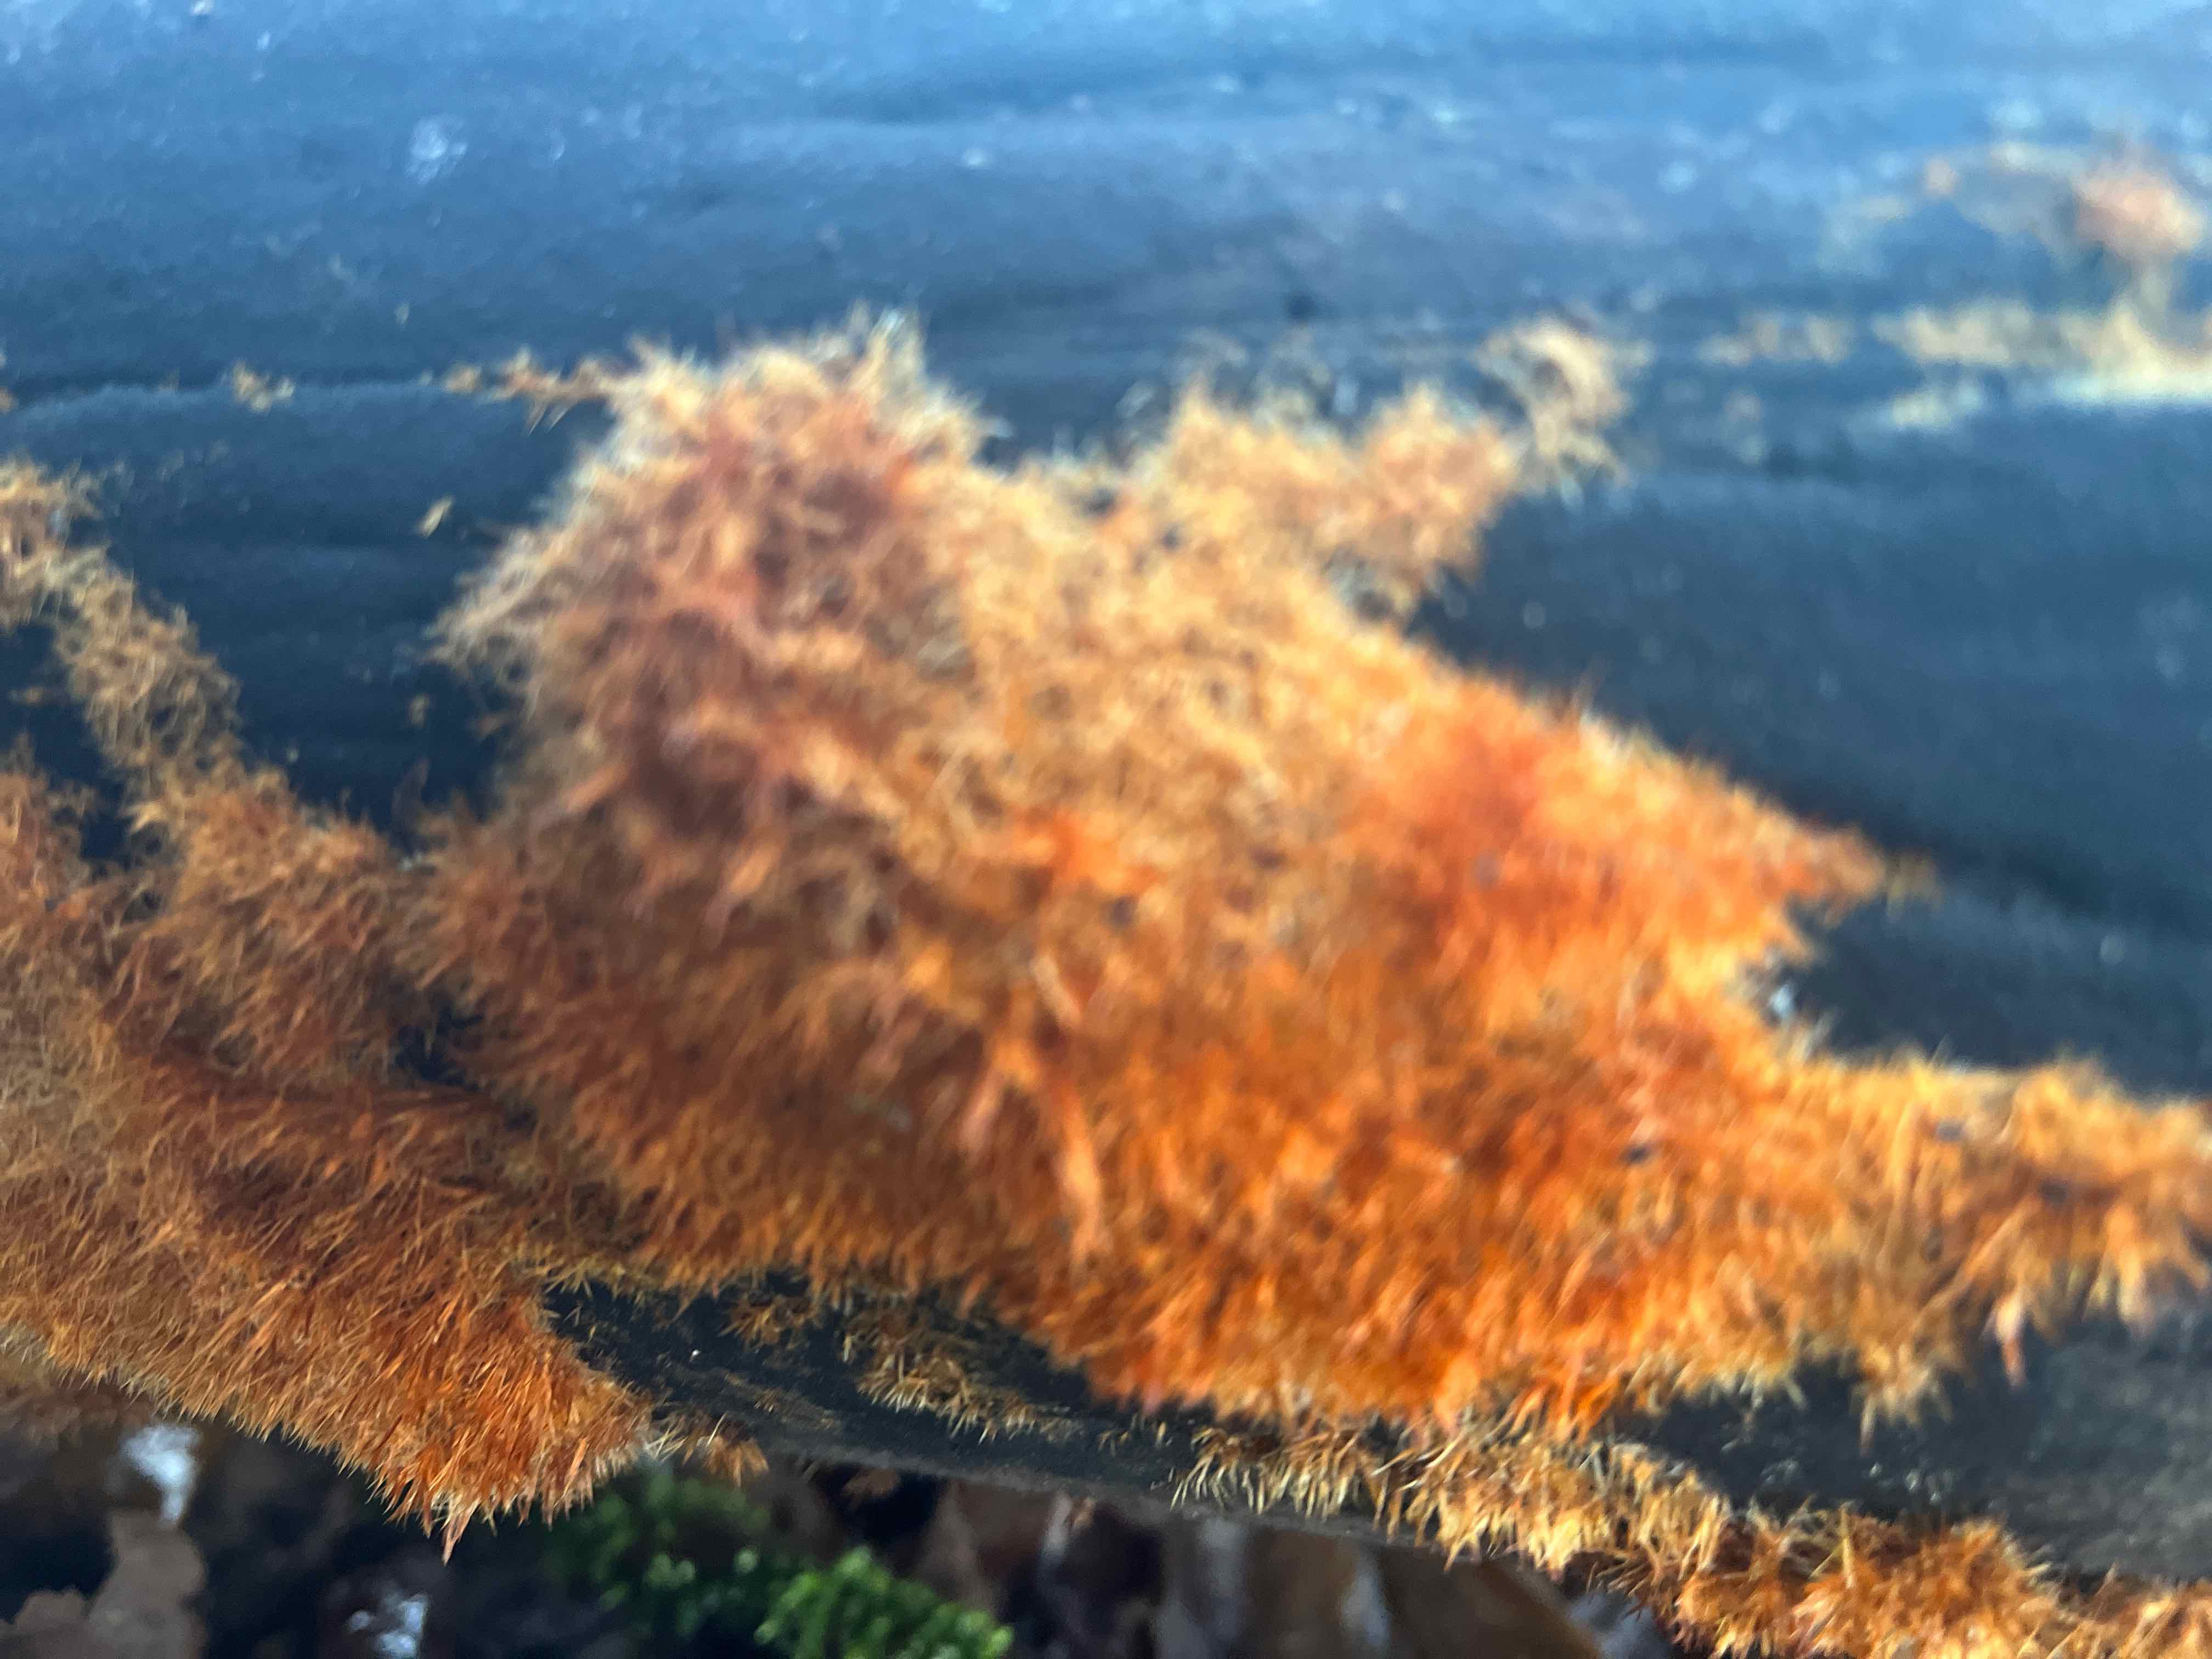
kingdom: Fungi
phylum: Basidiomycota
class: Agaricomycetes
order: Agaricales
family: Psathyrellaceae
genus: Ozonium
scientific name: Ozonium
